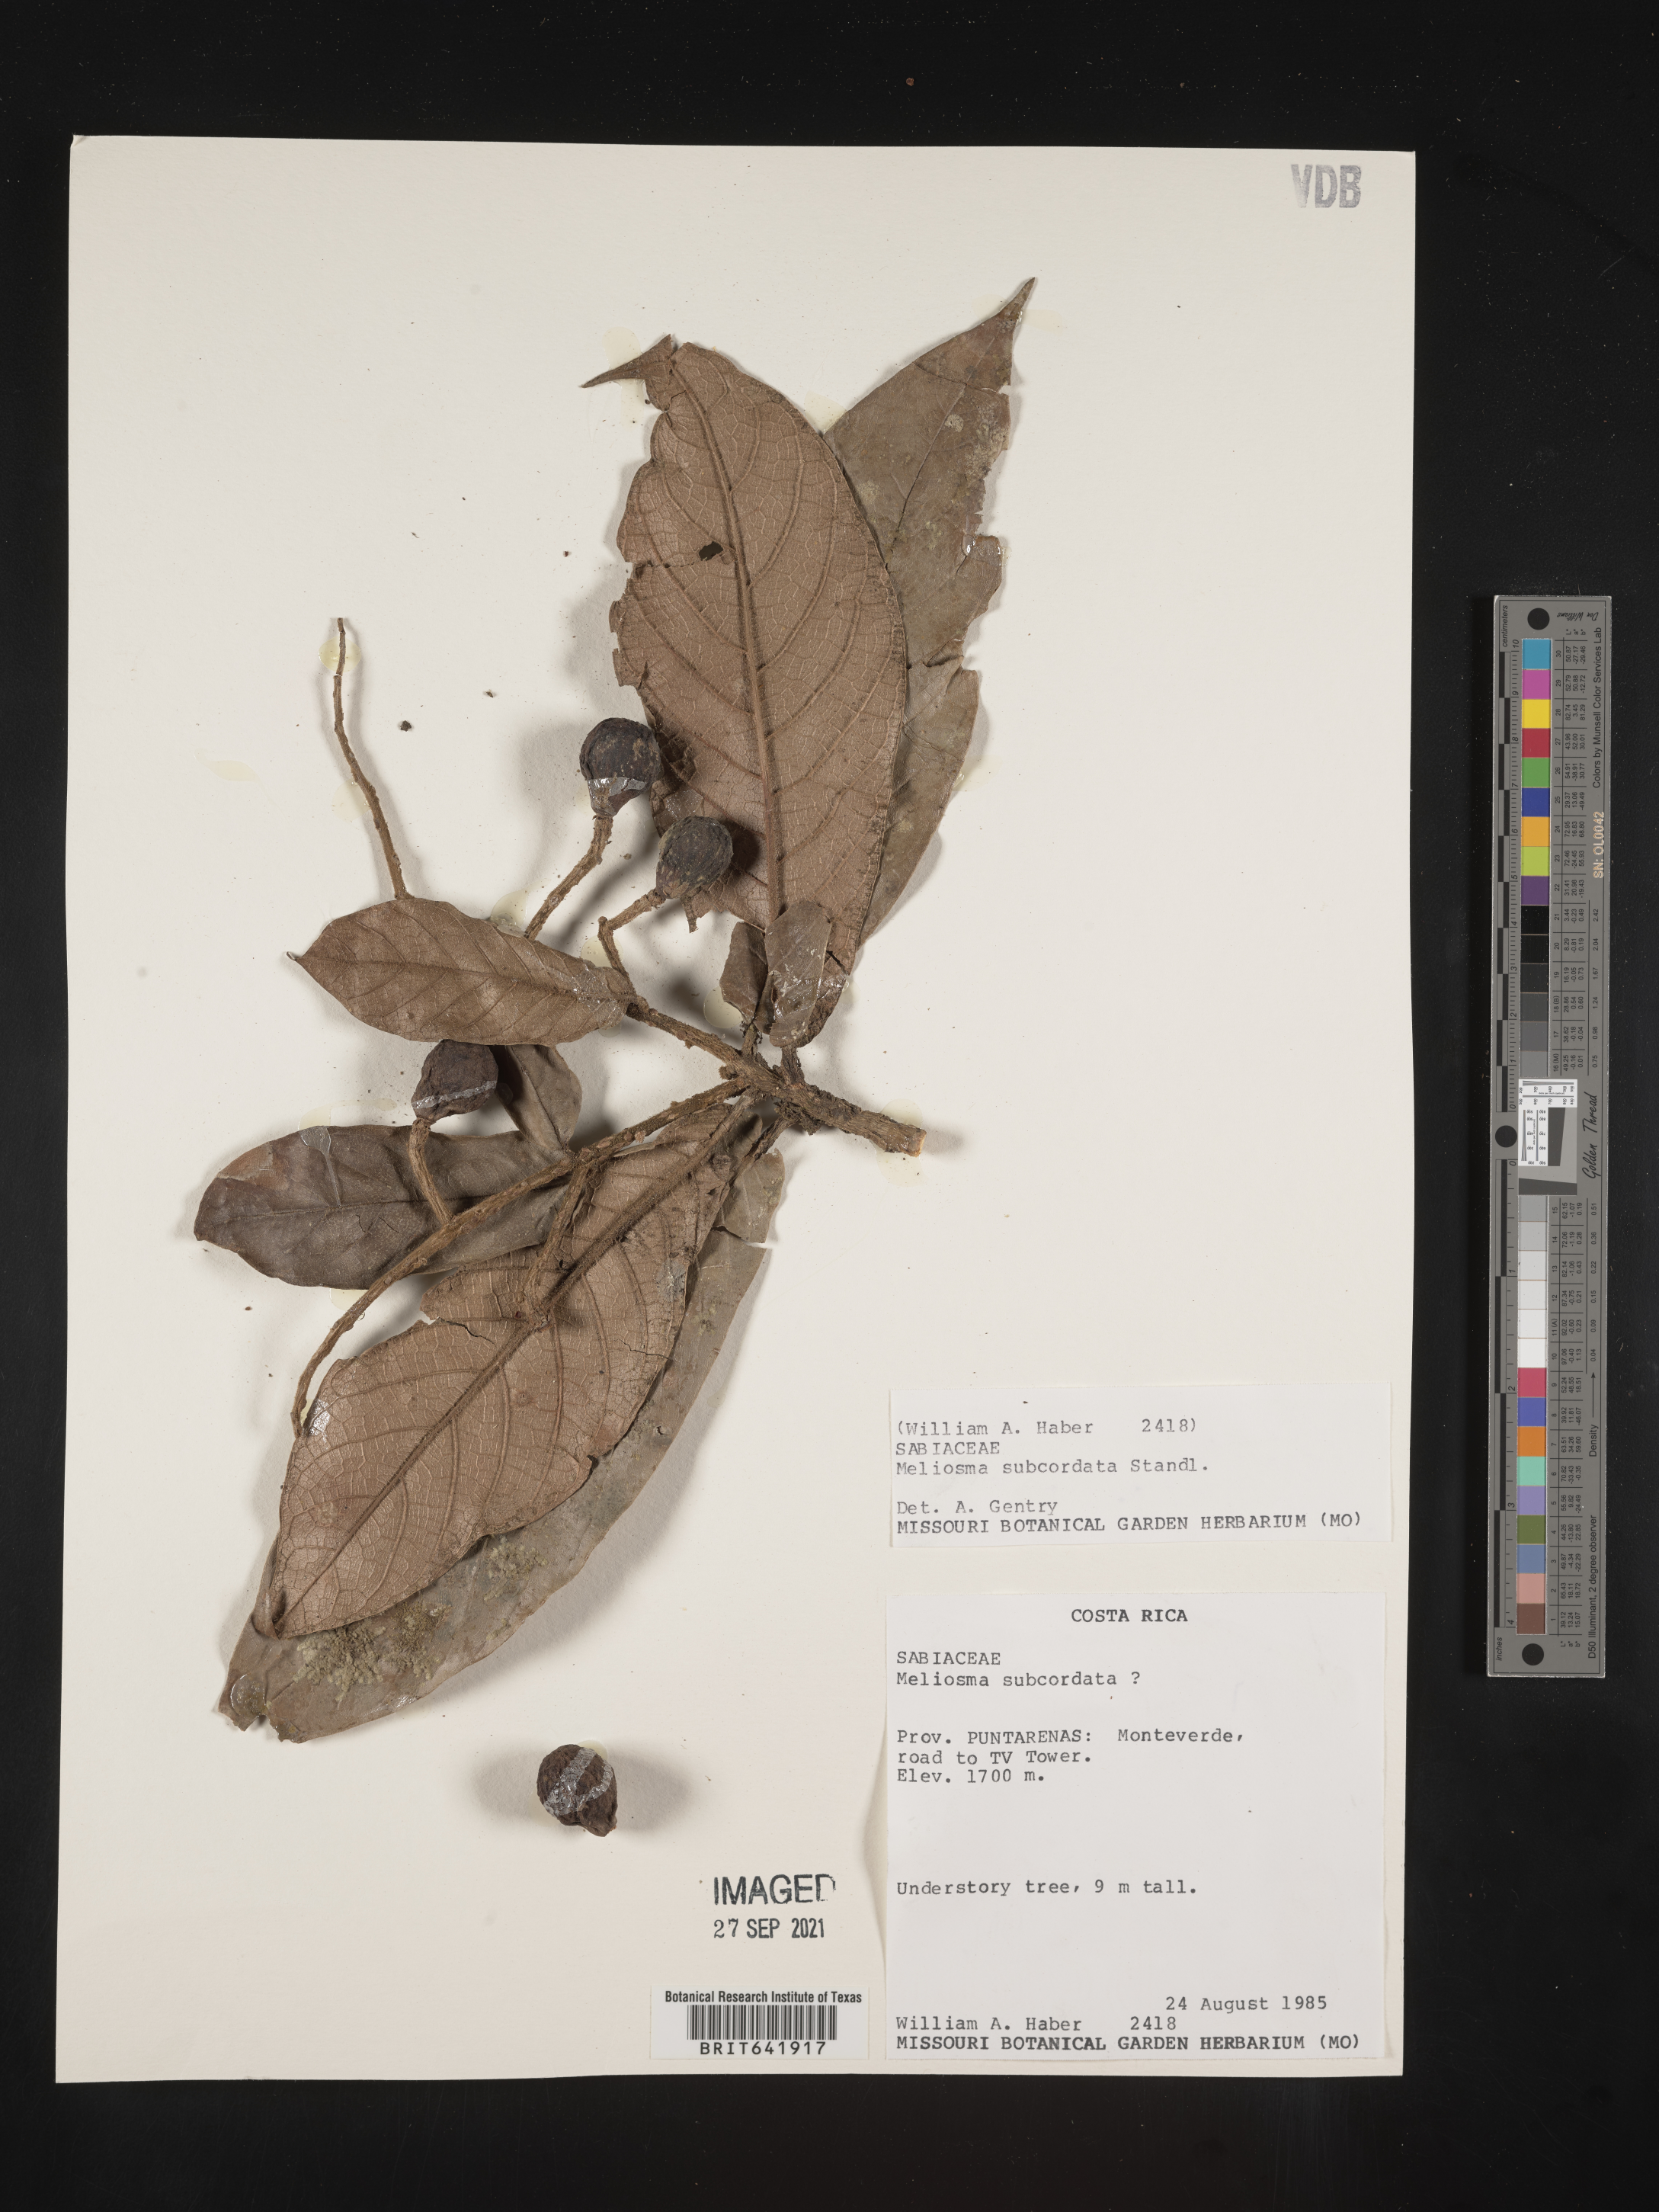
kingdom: Plantae
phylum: Tracheophyta
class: Magnoliopsida
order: Proteales
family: Sabiaceae
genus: Meliosma
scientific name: Meliosma
